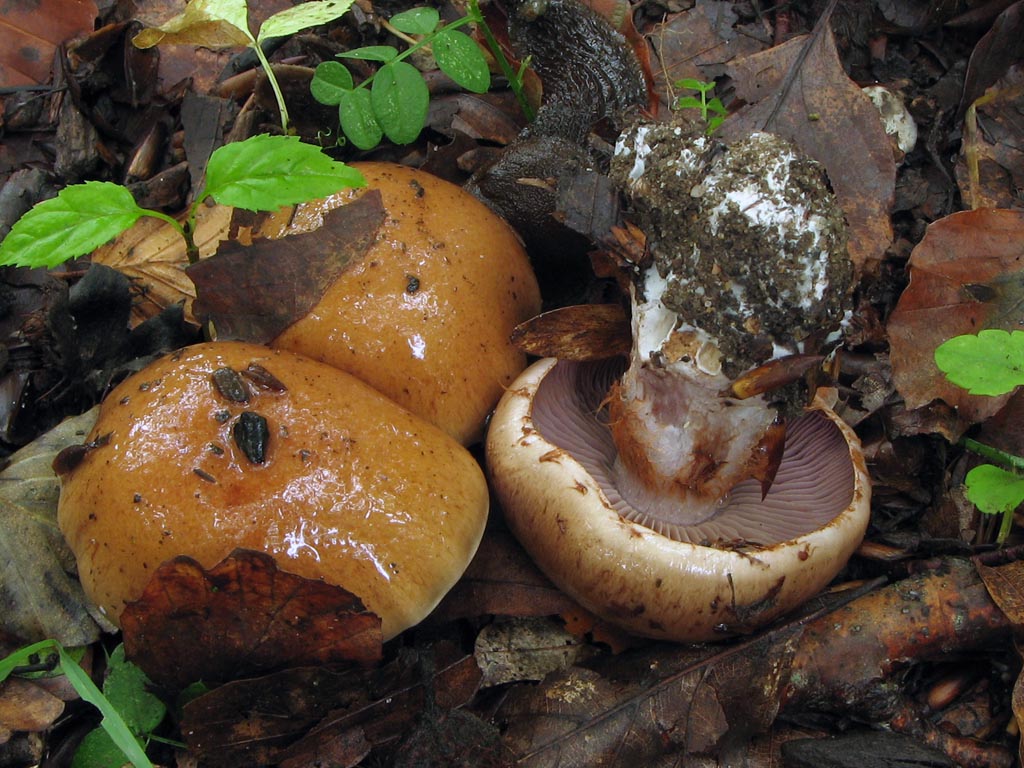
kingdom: Fungi
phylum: Basidiomycota
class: Agaricomycetes
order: Agaricales
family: Cortinariaceae
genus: Cortinarius
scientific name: Cortinarius anserinus
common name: bøge-slørhat
